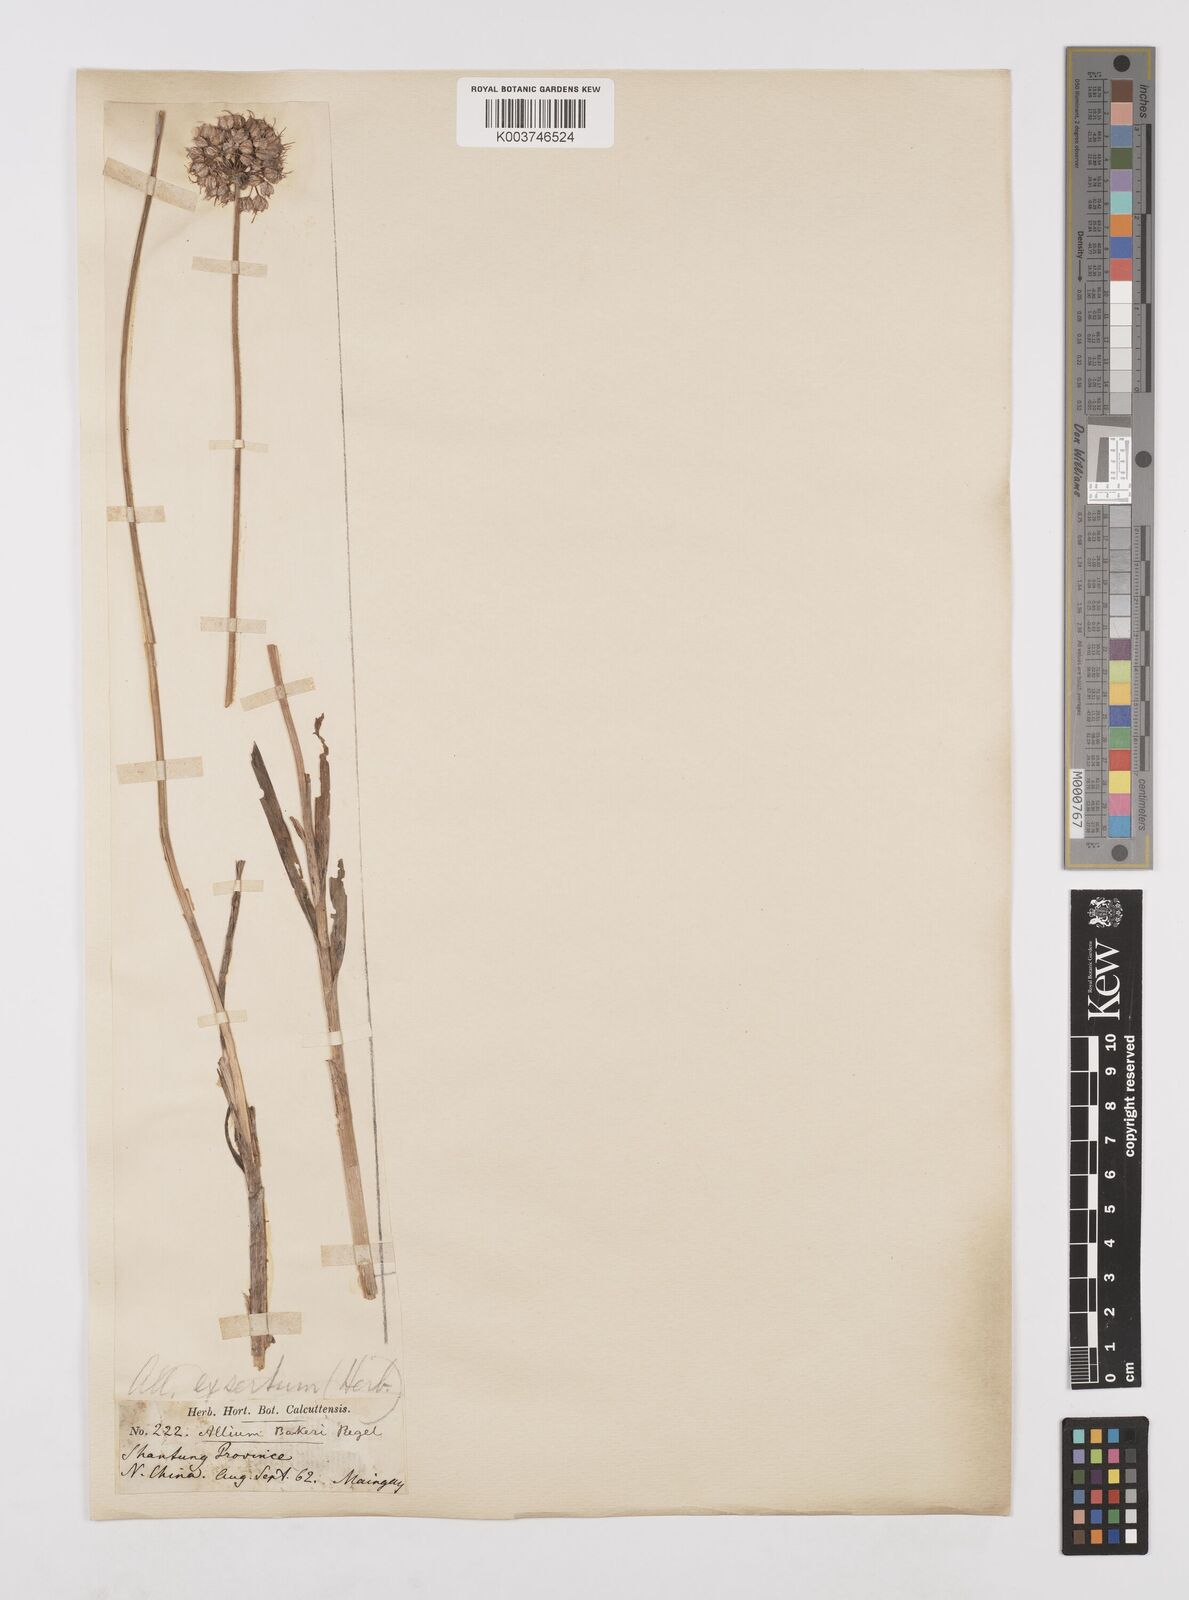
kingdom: Plantae
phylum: Tracheophyta
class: Liliopsida
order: Asparagales
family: Amaryllidaceae
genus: Allium
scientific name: Allium chinense
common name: Japanese scallion
